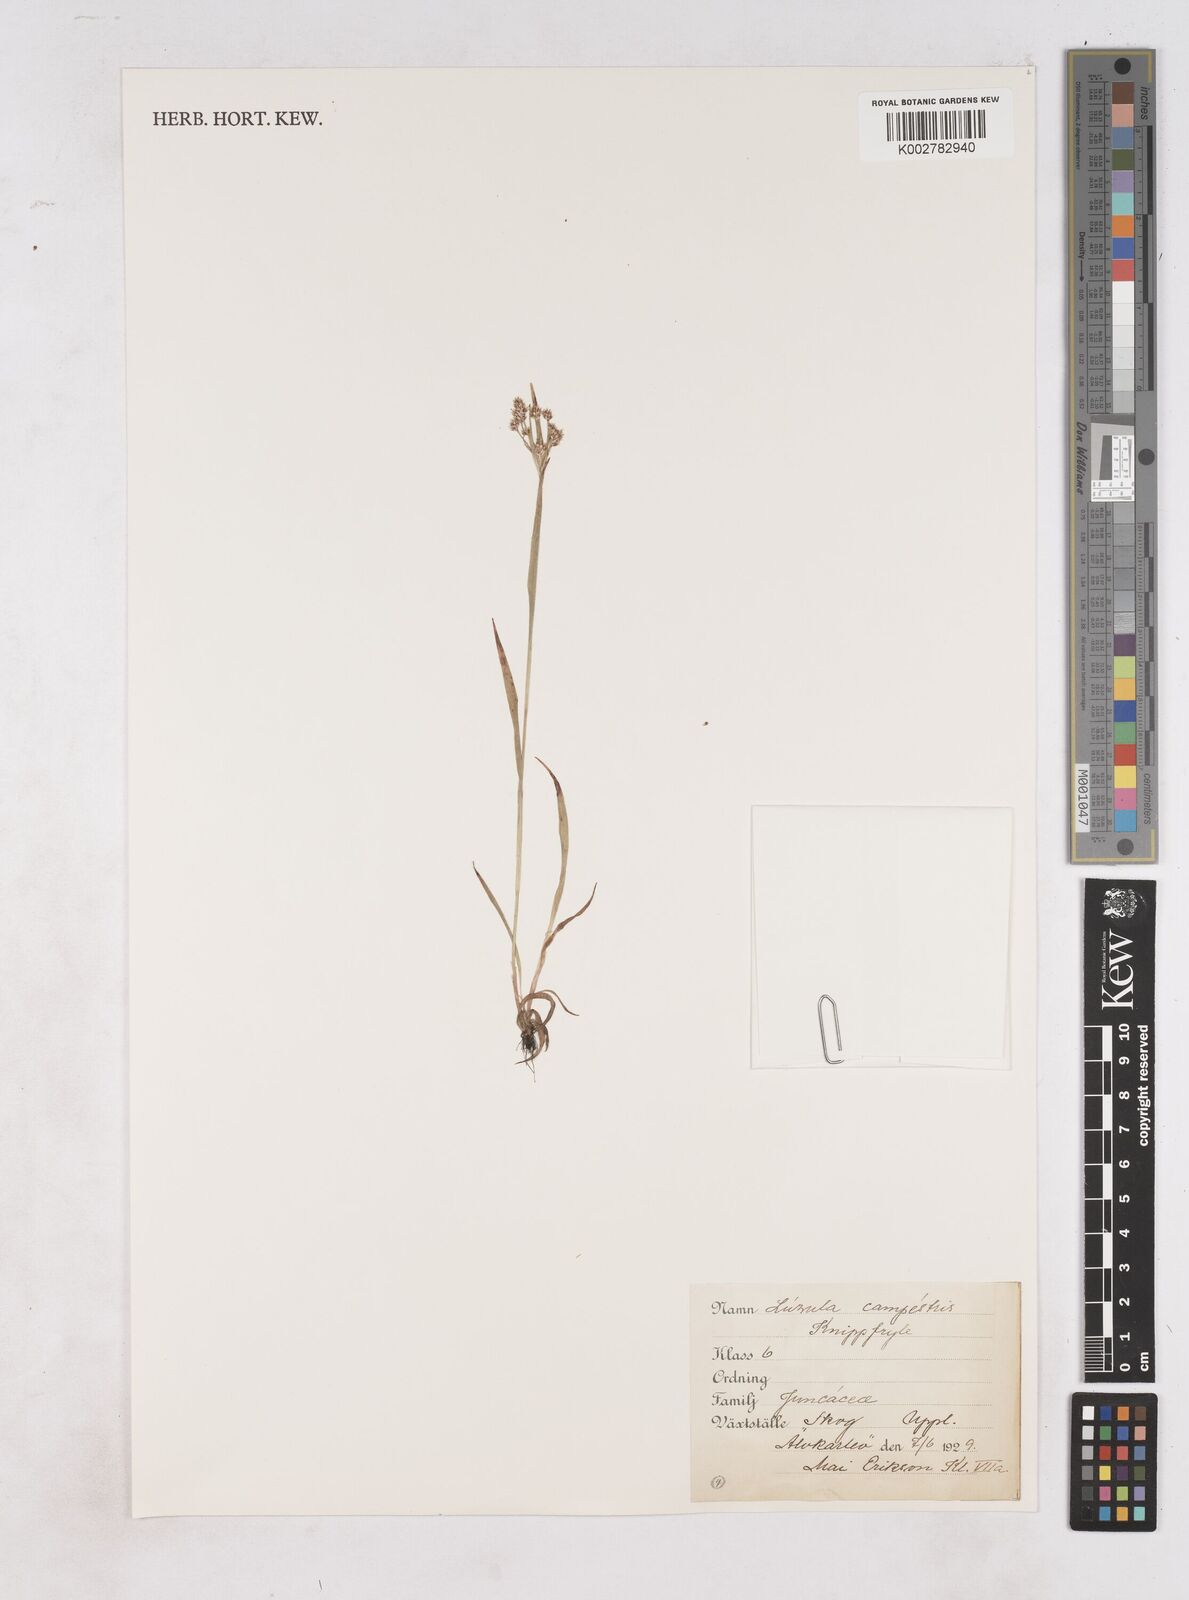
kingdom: Plantae
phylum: Tracheophyta
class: Liliopsida
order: Poales
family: Juncaceae
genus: Luzula
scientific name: Luzula campestris
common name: Field wood-rush
